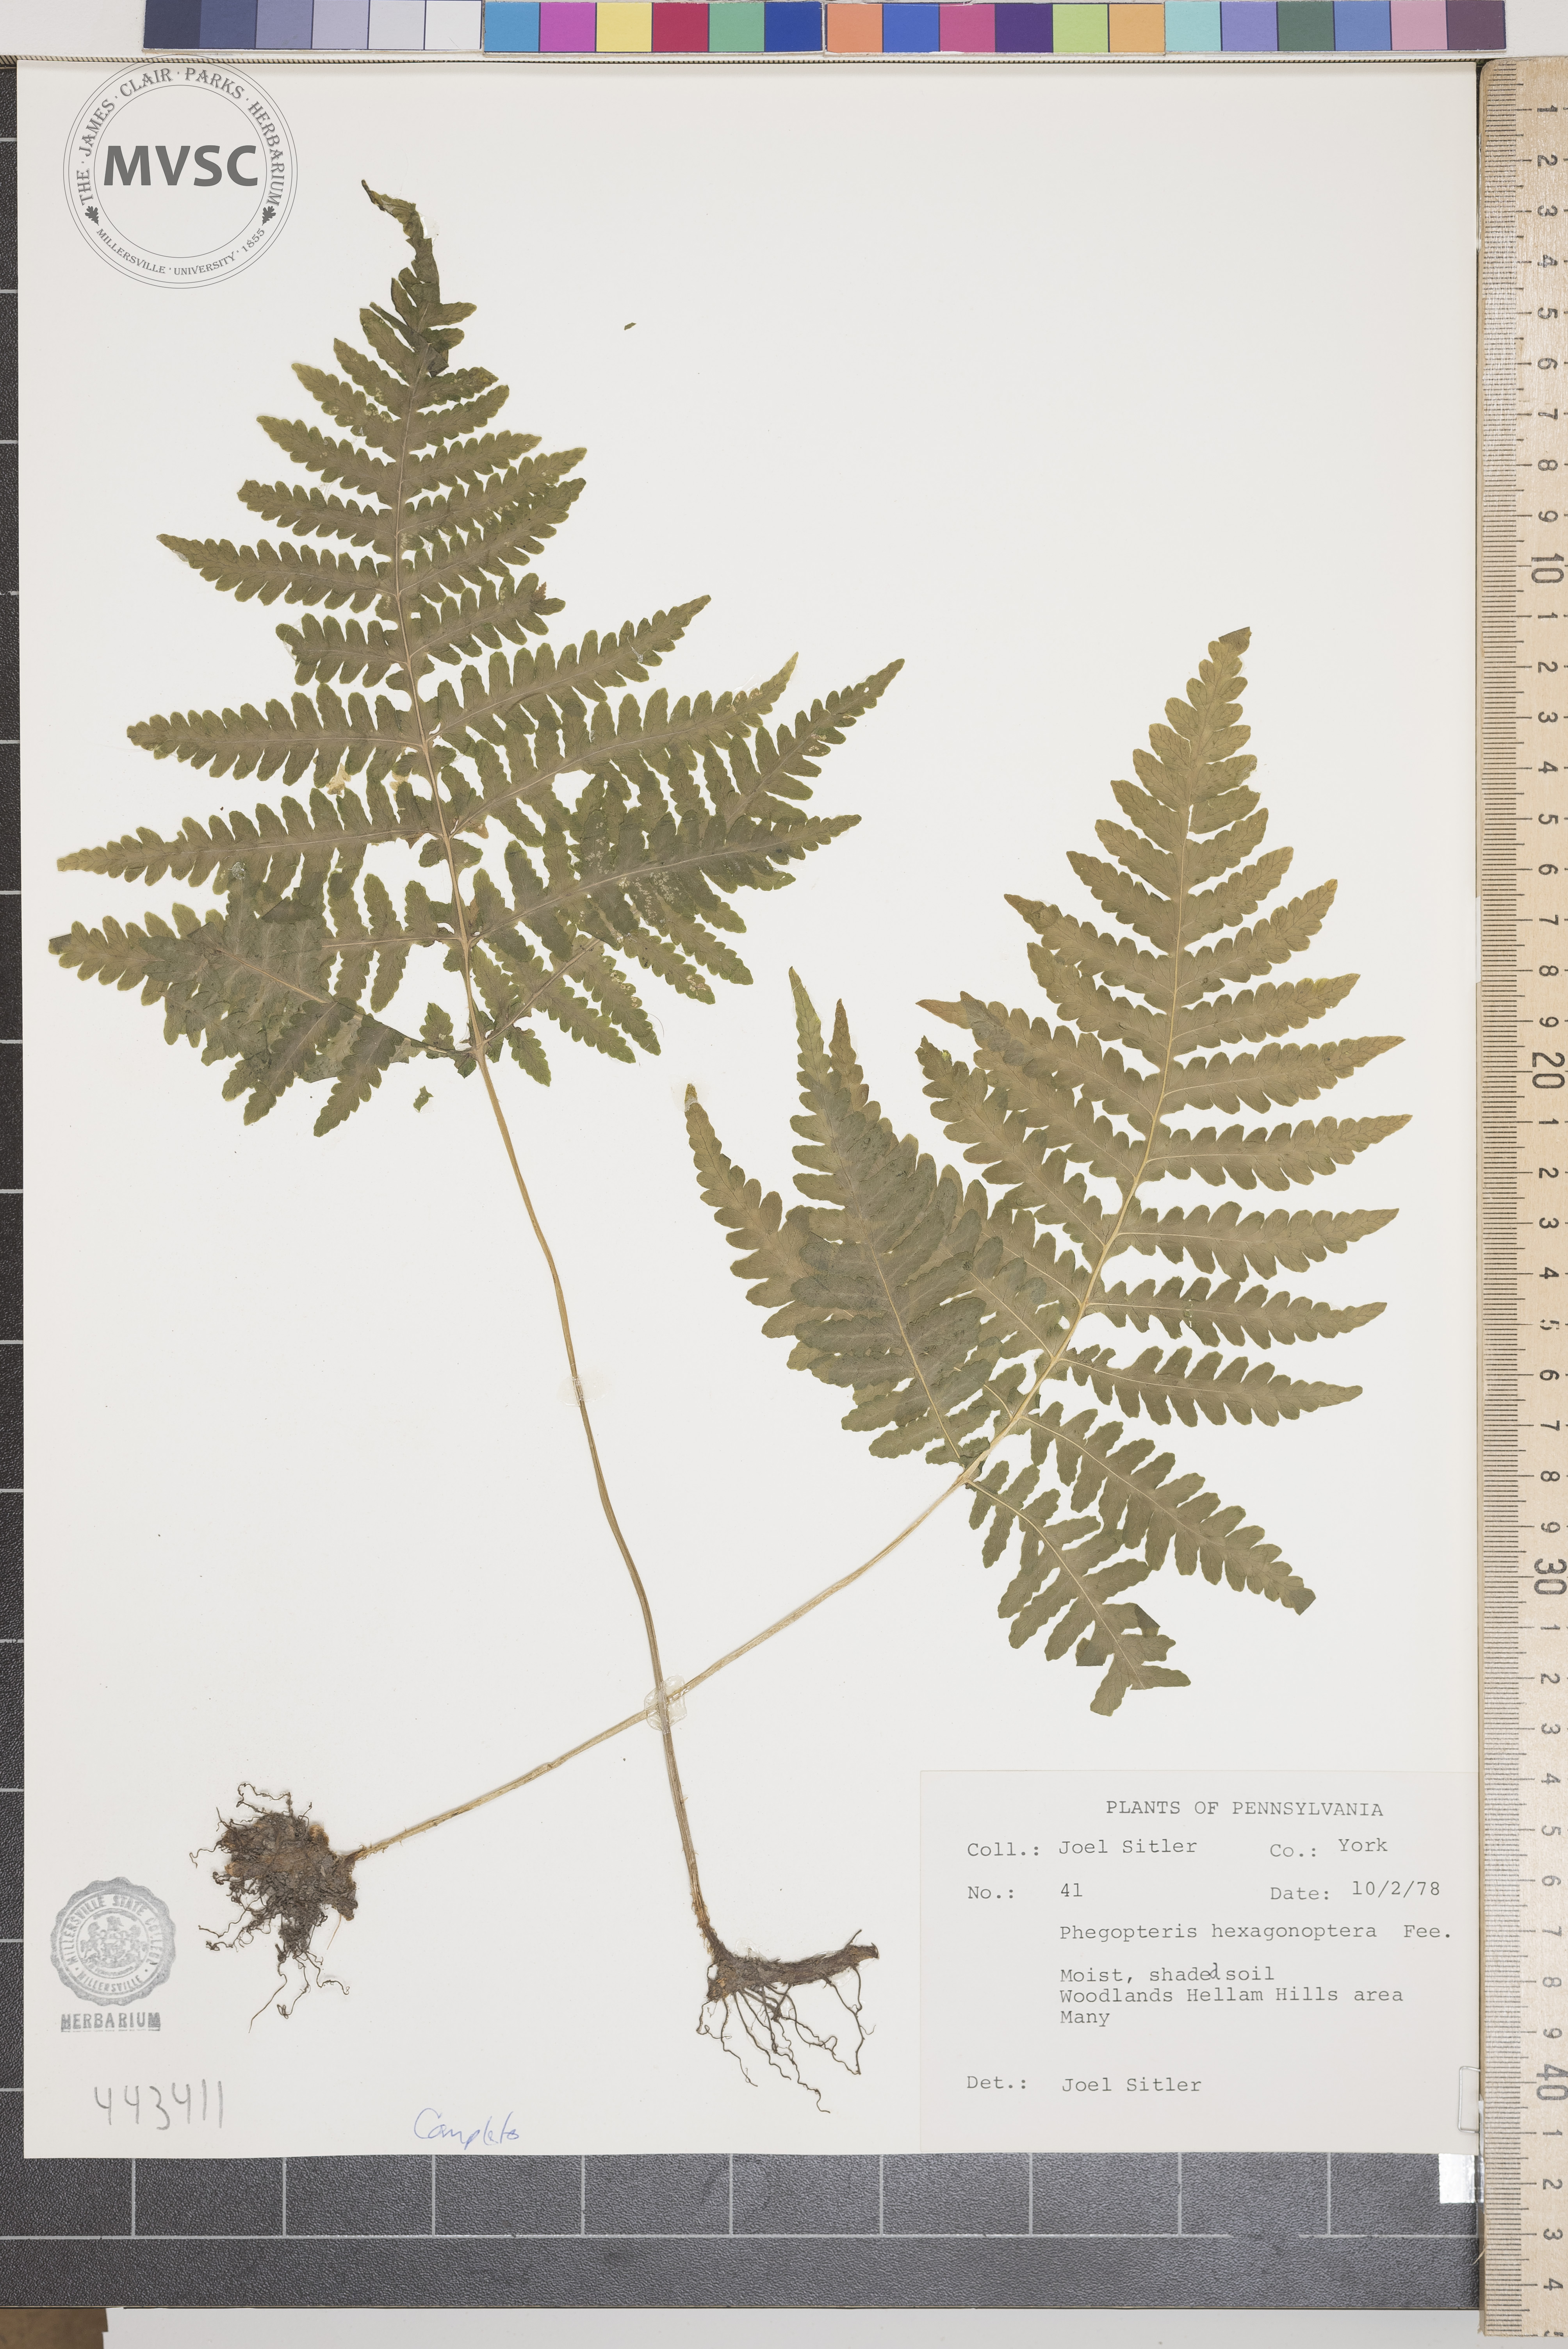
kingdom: Plantae
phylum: Tracheophyta
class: Polypodiopsida
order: Polypodiales
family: Thelypteridaceae
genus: Phegopteris
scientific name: Phegopteris hexagonoptera
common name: Broad beech fern
